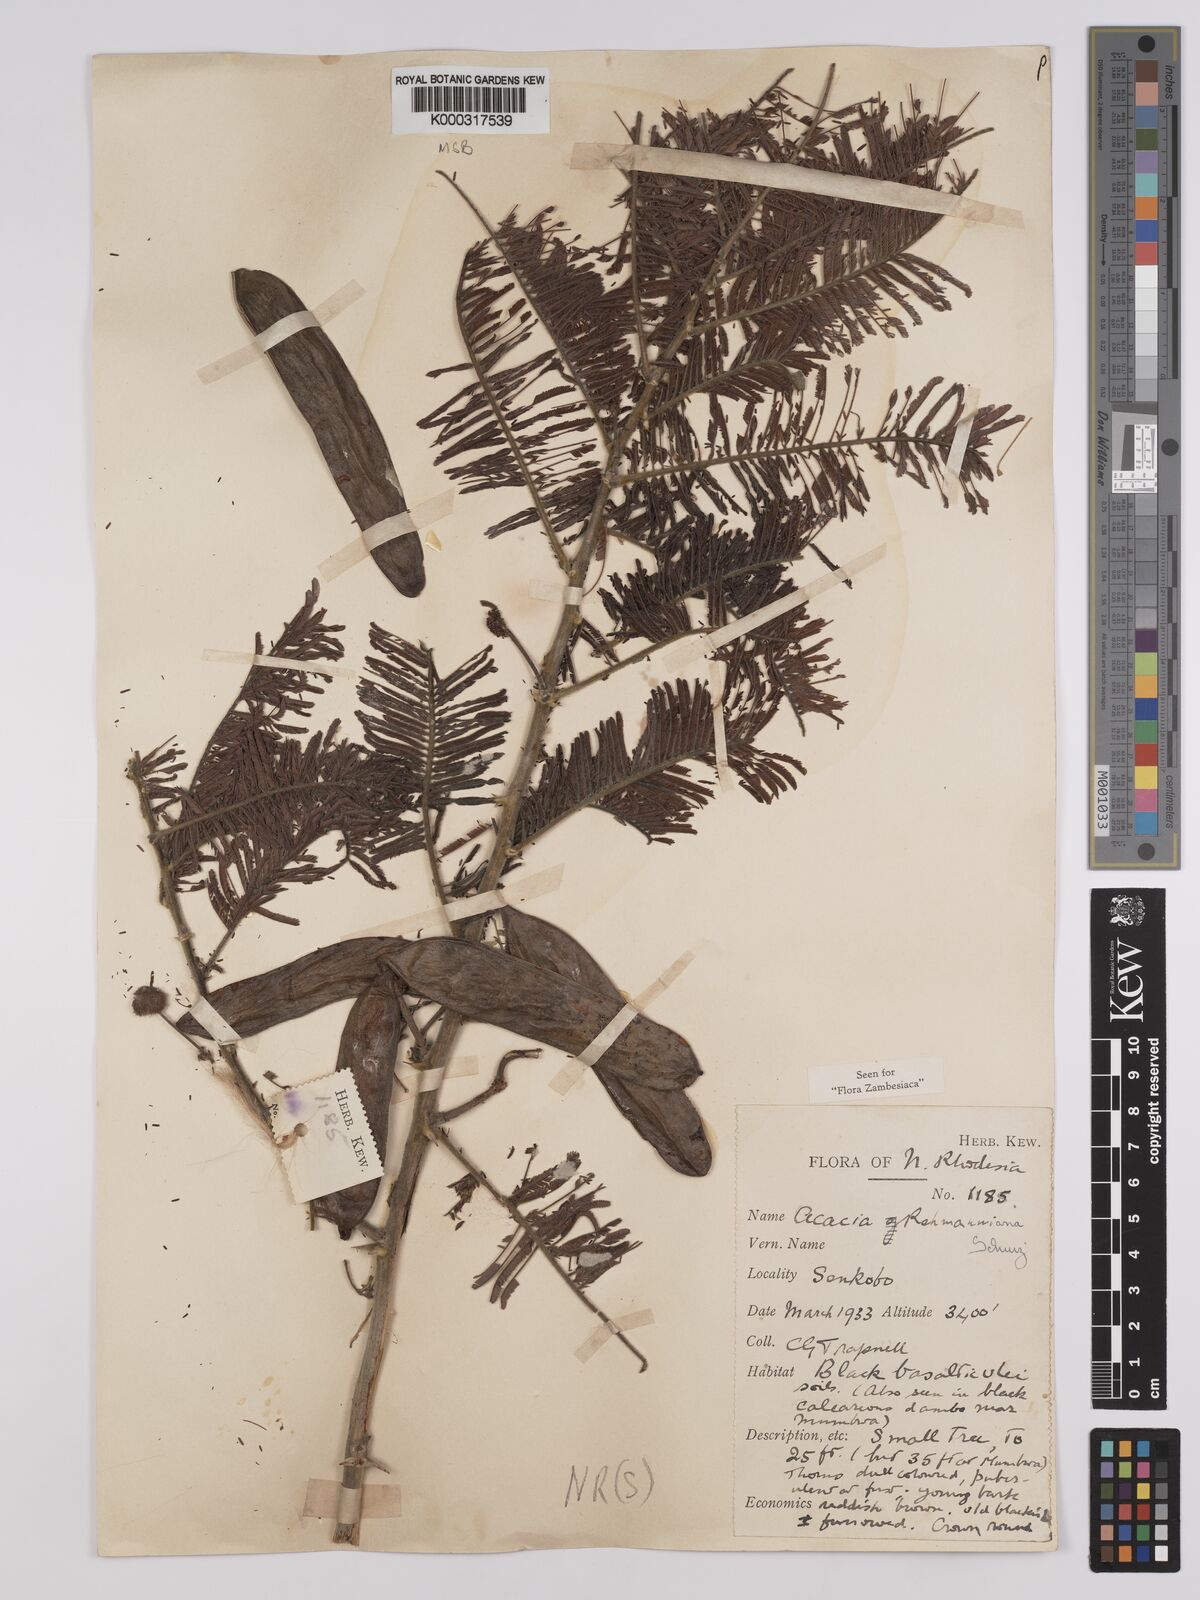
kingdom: Plantae
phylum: Tracheophyta
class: Magnoliopsida
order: Fabales
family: Fabaceae
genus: Vachellia
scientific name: Vachellia rehmanniana
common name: Silky thorn
